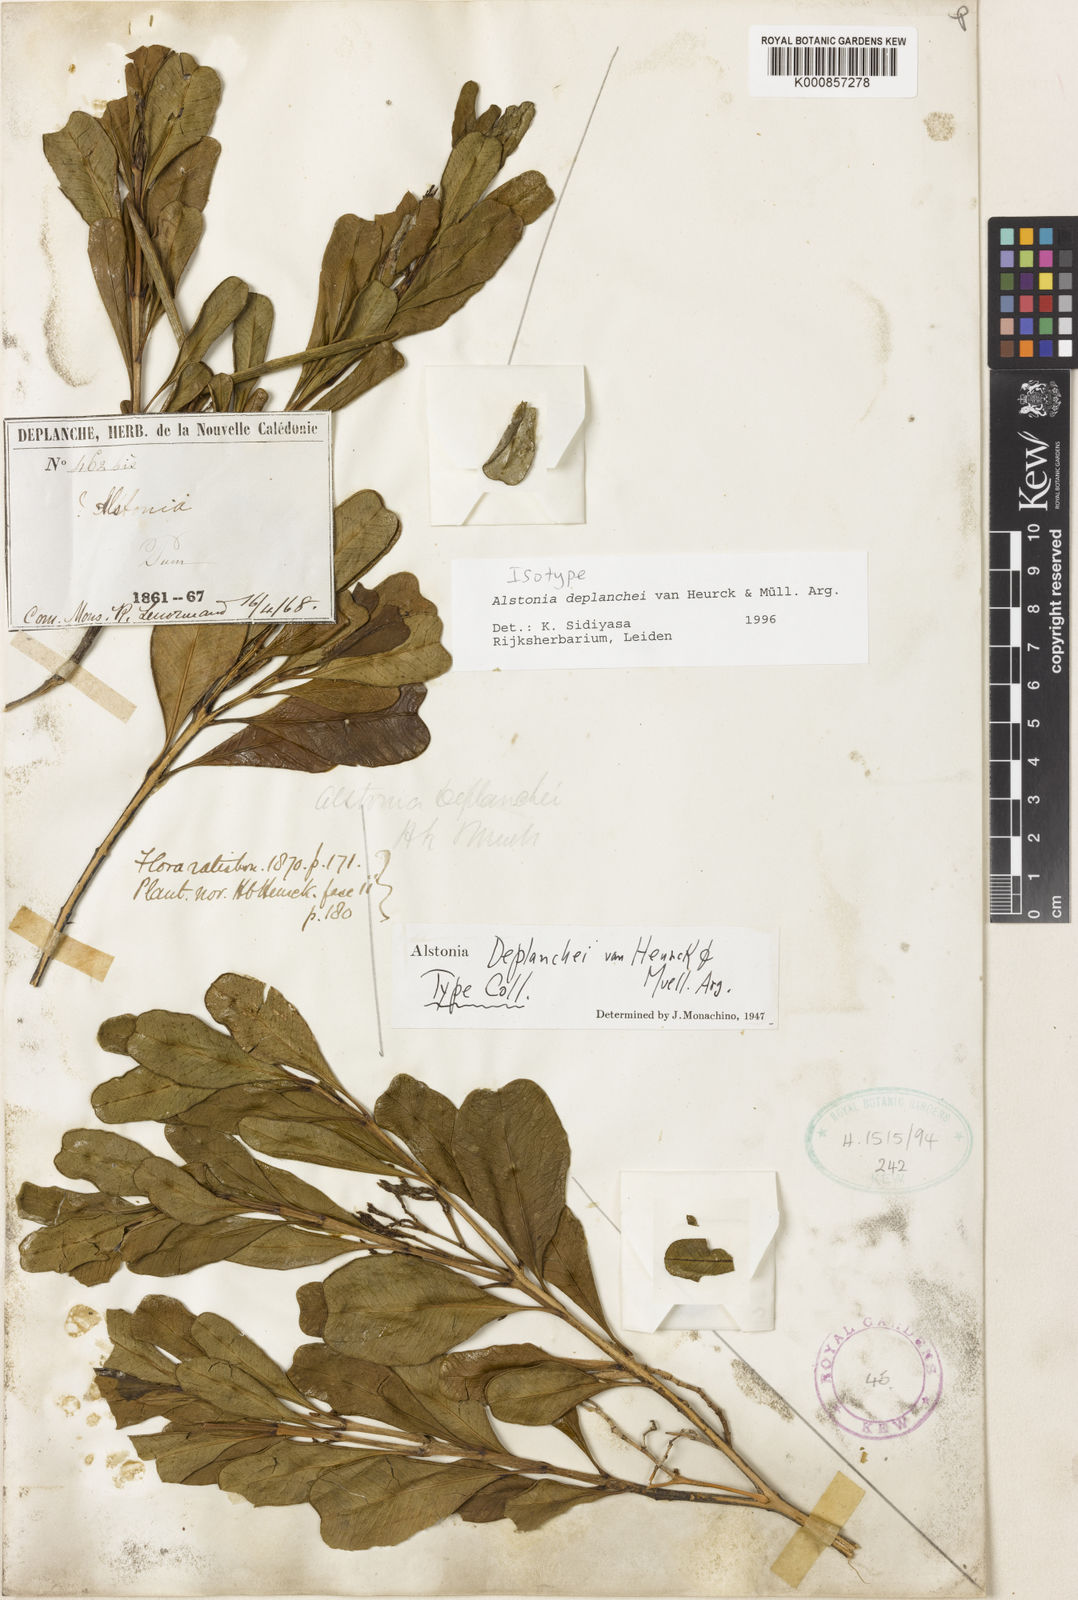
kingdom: Plantae
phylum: Tracheophyta
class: Magnoliopsida
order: Gentianales
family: Apocynaceae
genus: Alstonia
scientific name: Alstonia
